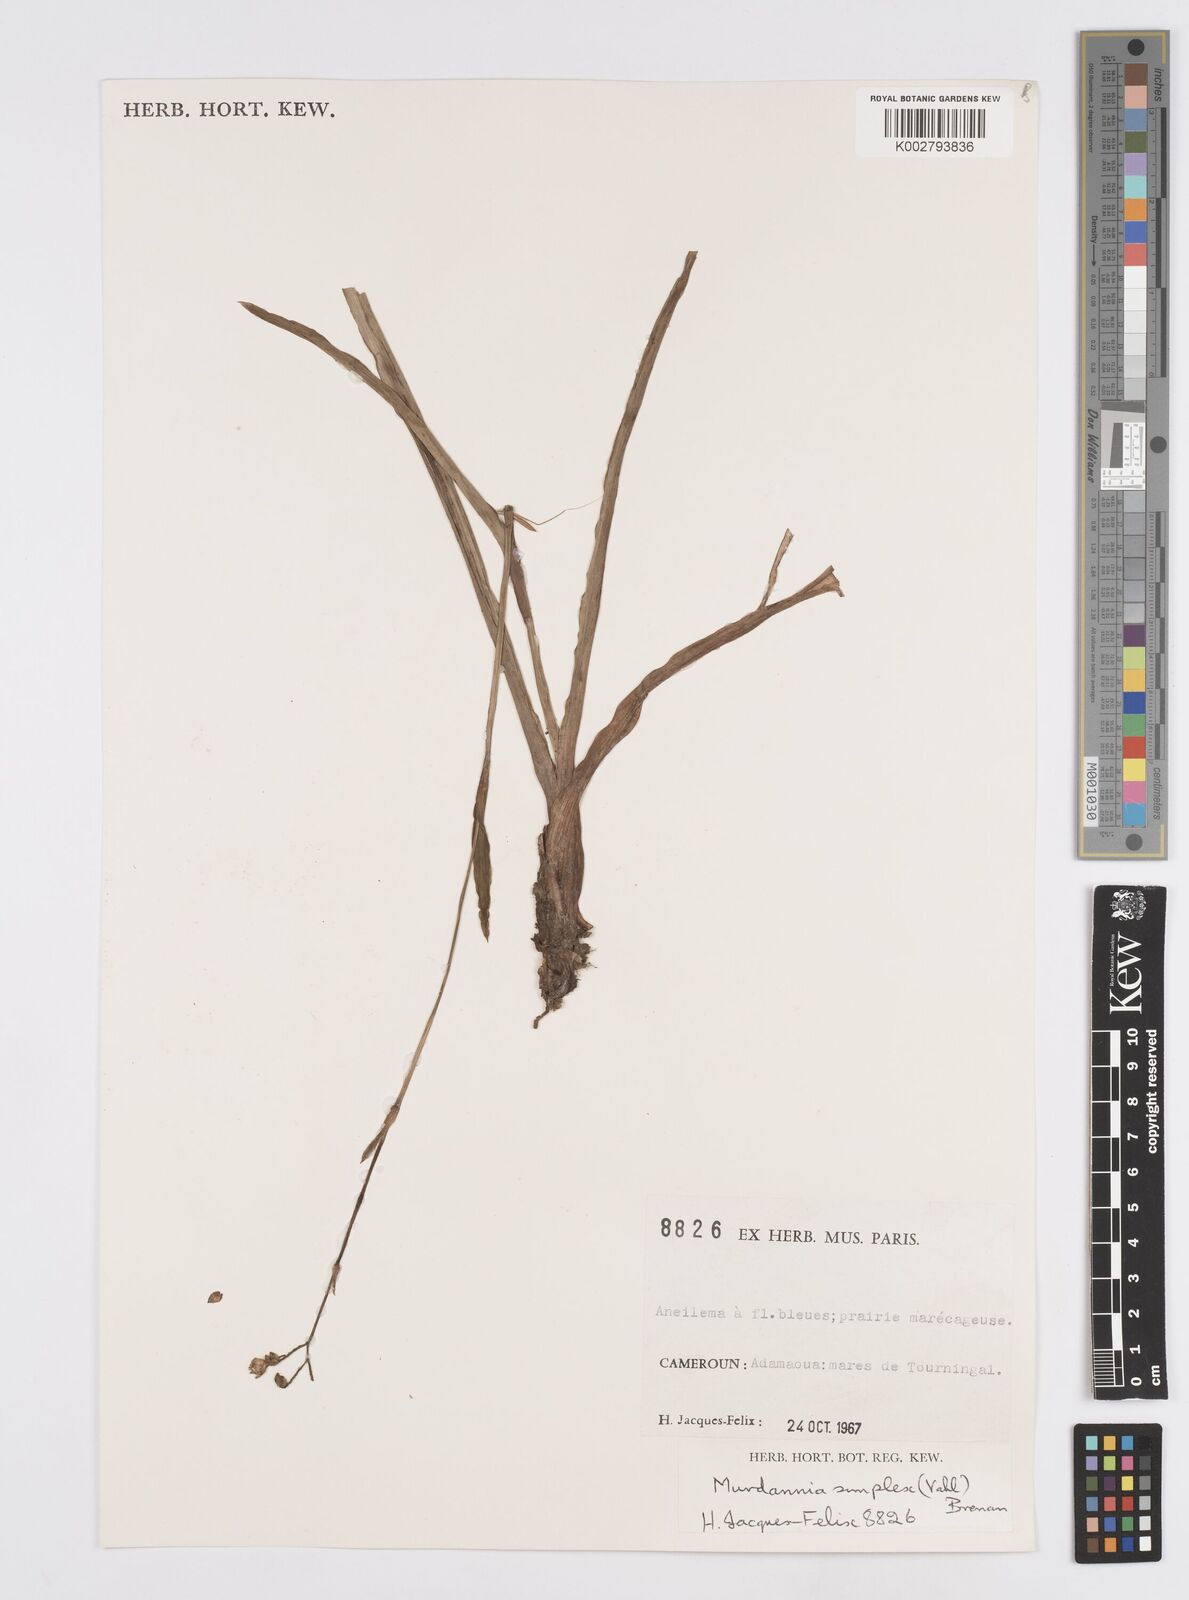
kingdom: Plantae
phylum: Tracheophyta
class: Liliopsida
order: Commelinales
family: Commelinaceae
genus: Murdannia
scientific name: Murdannia simplex
